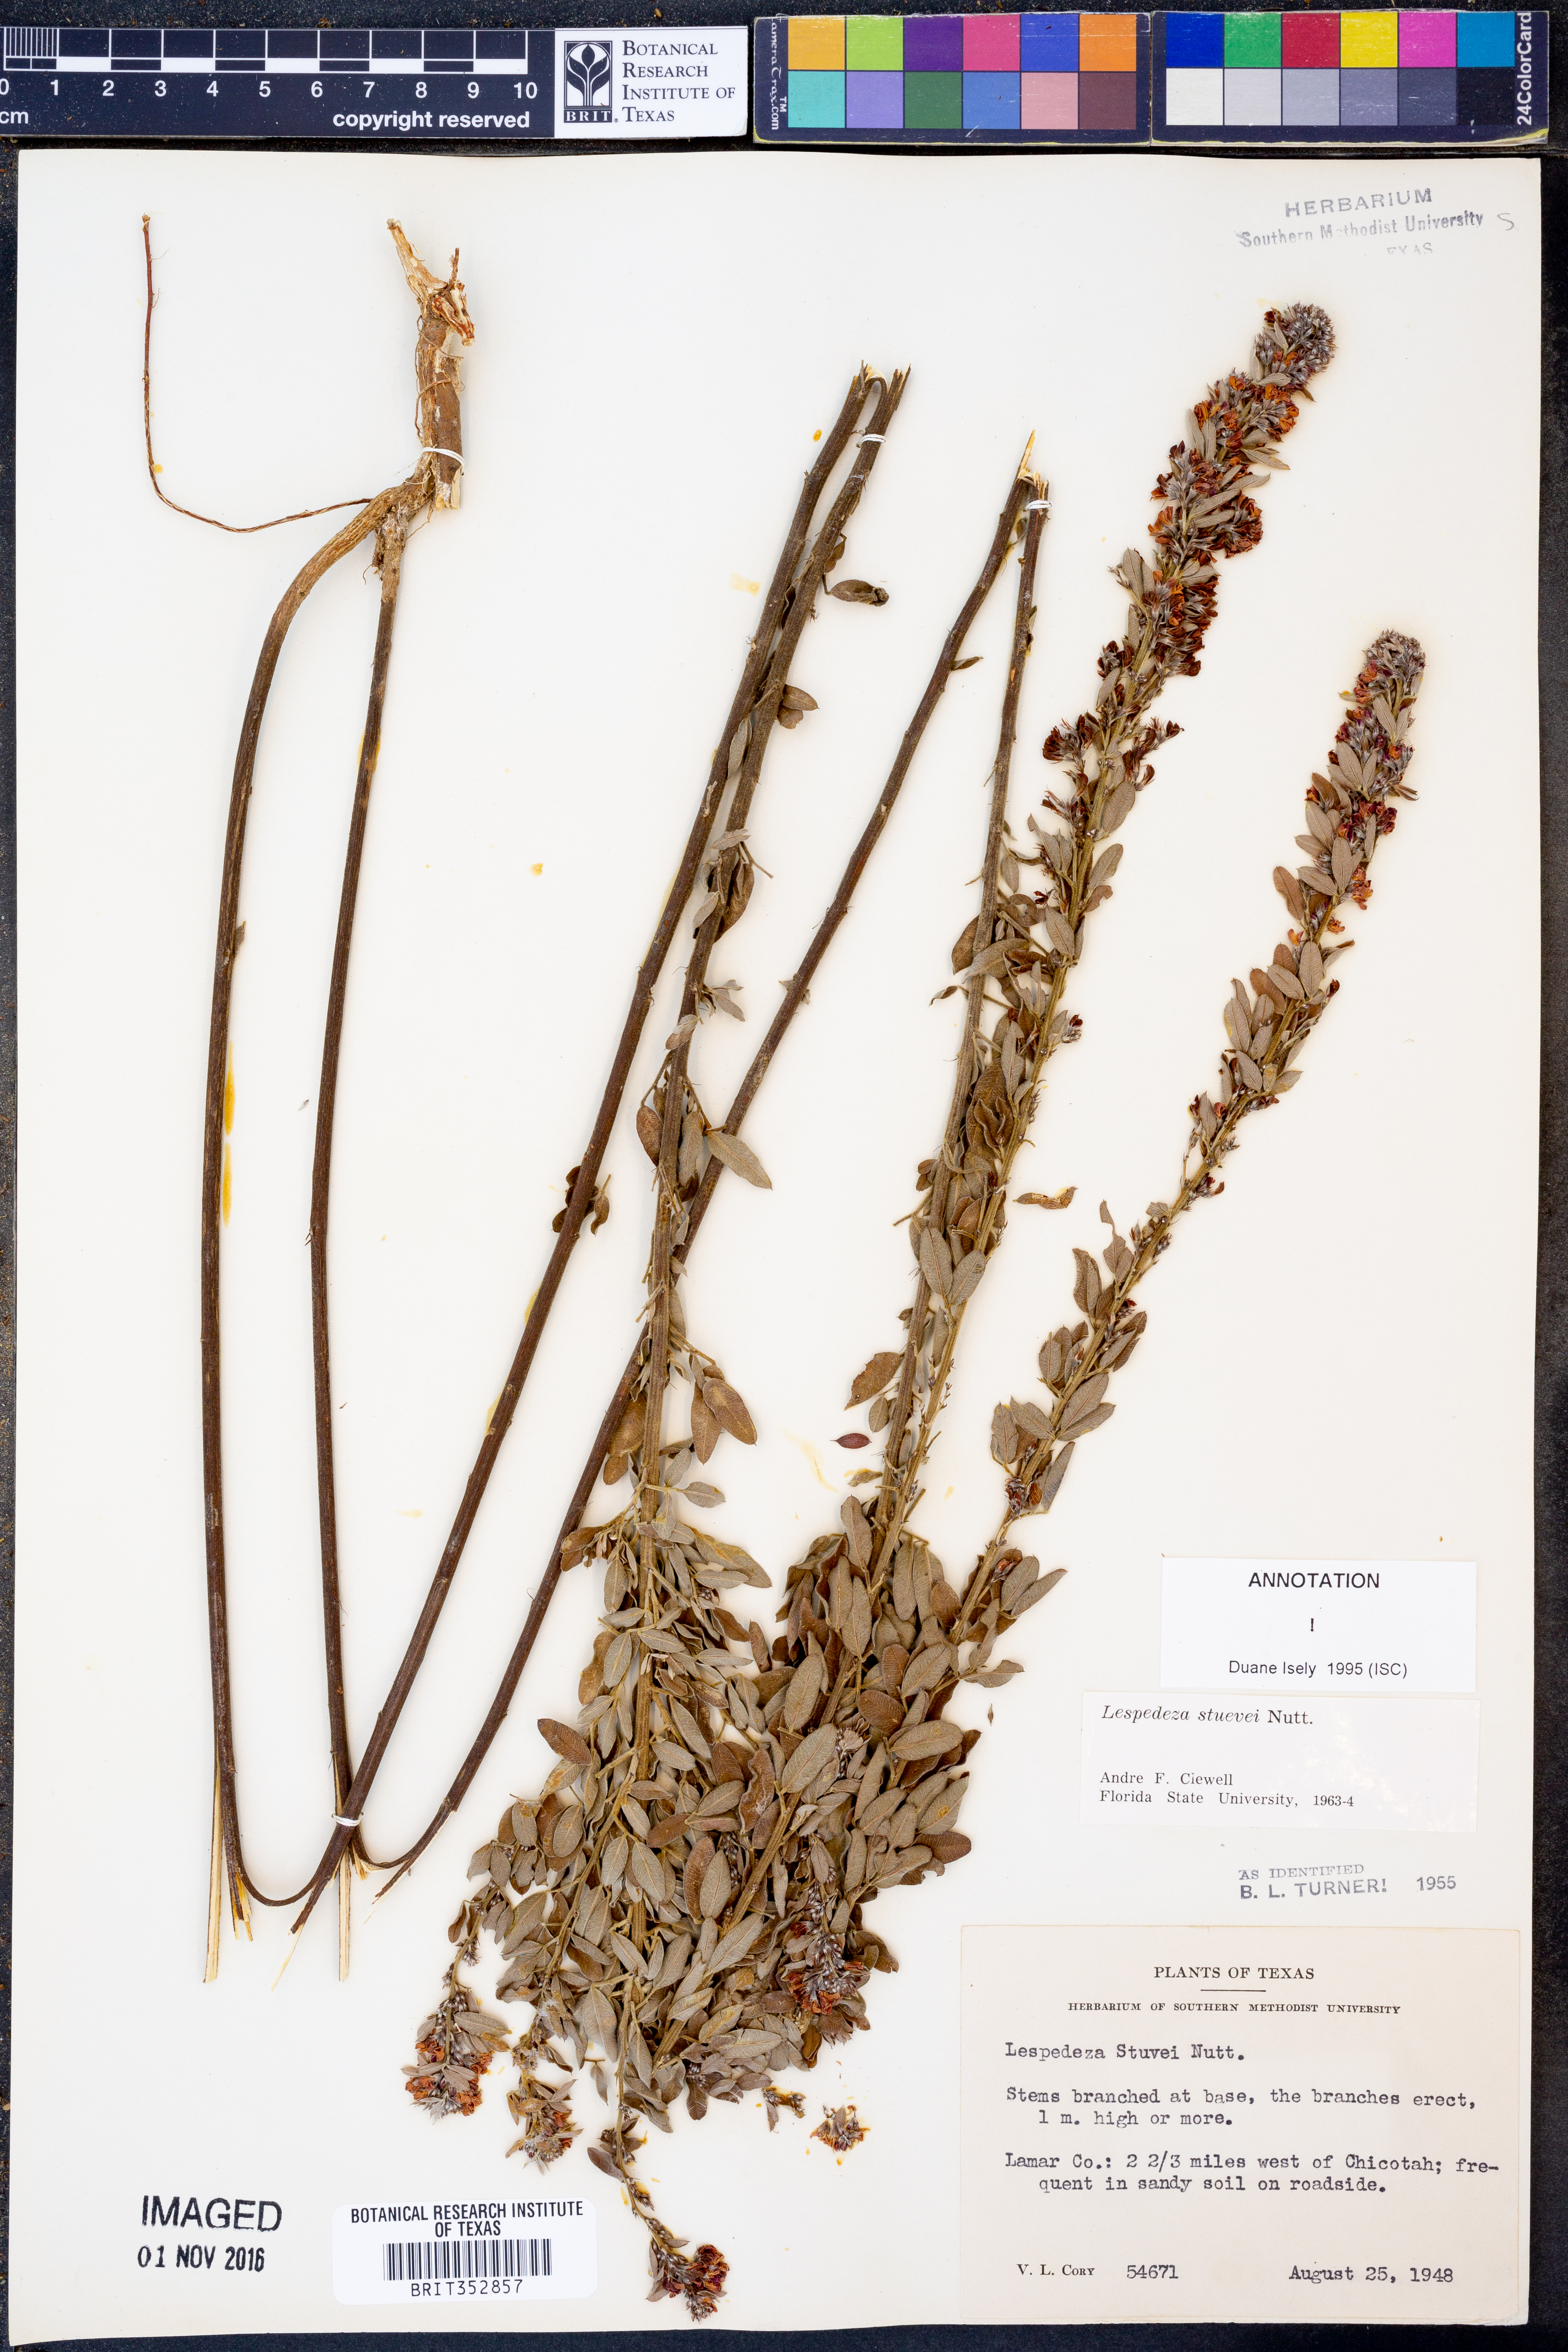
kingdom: Plantae
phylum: Tracheophyta
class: Magnoliopsida
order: Fabales
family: Fabaceae
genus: Lespedeza
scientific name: Lespedeza stuevei
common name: Tall bush-clover
